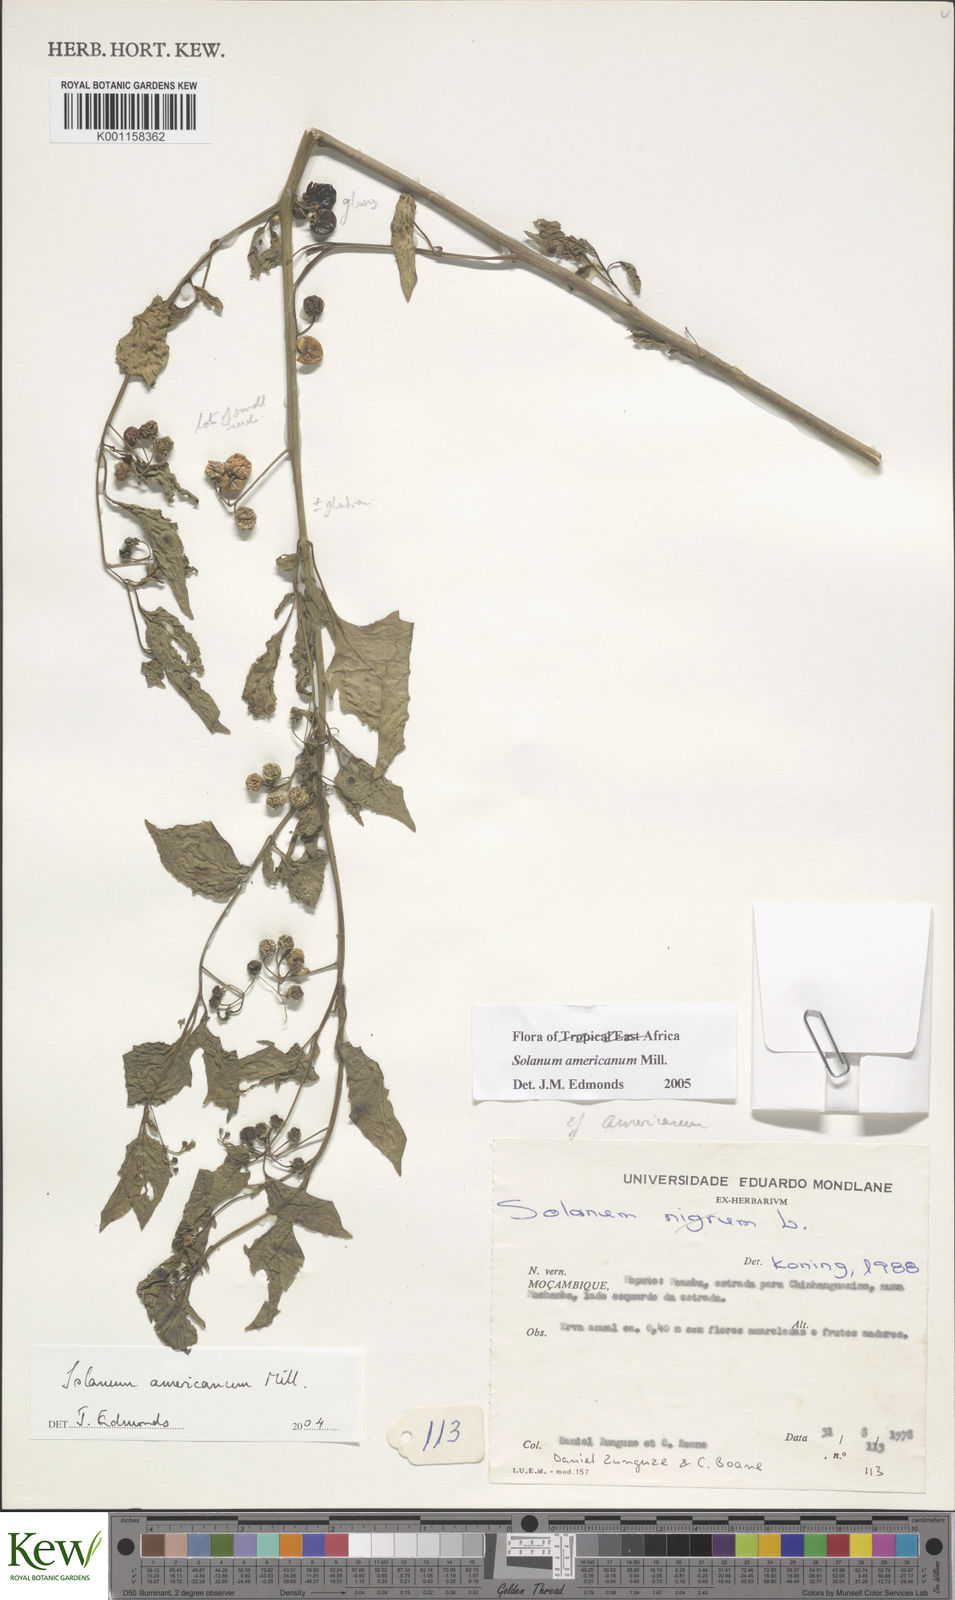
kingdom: Plantae
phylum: Tracheophyta
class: Magnoliopsida
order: Solanales
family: Solanaceae
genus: Solanum
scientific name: Solanum americanum
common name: American black nightshade
